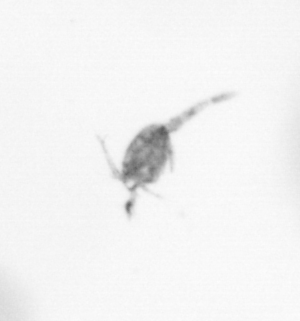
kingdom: Animalia
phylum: Arthropoda
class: Copepoda
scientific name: Copepoda
